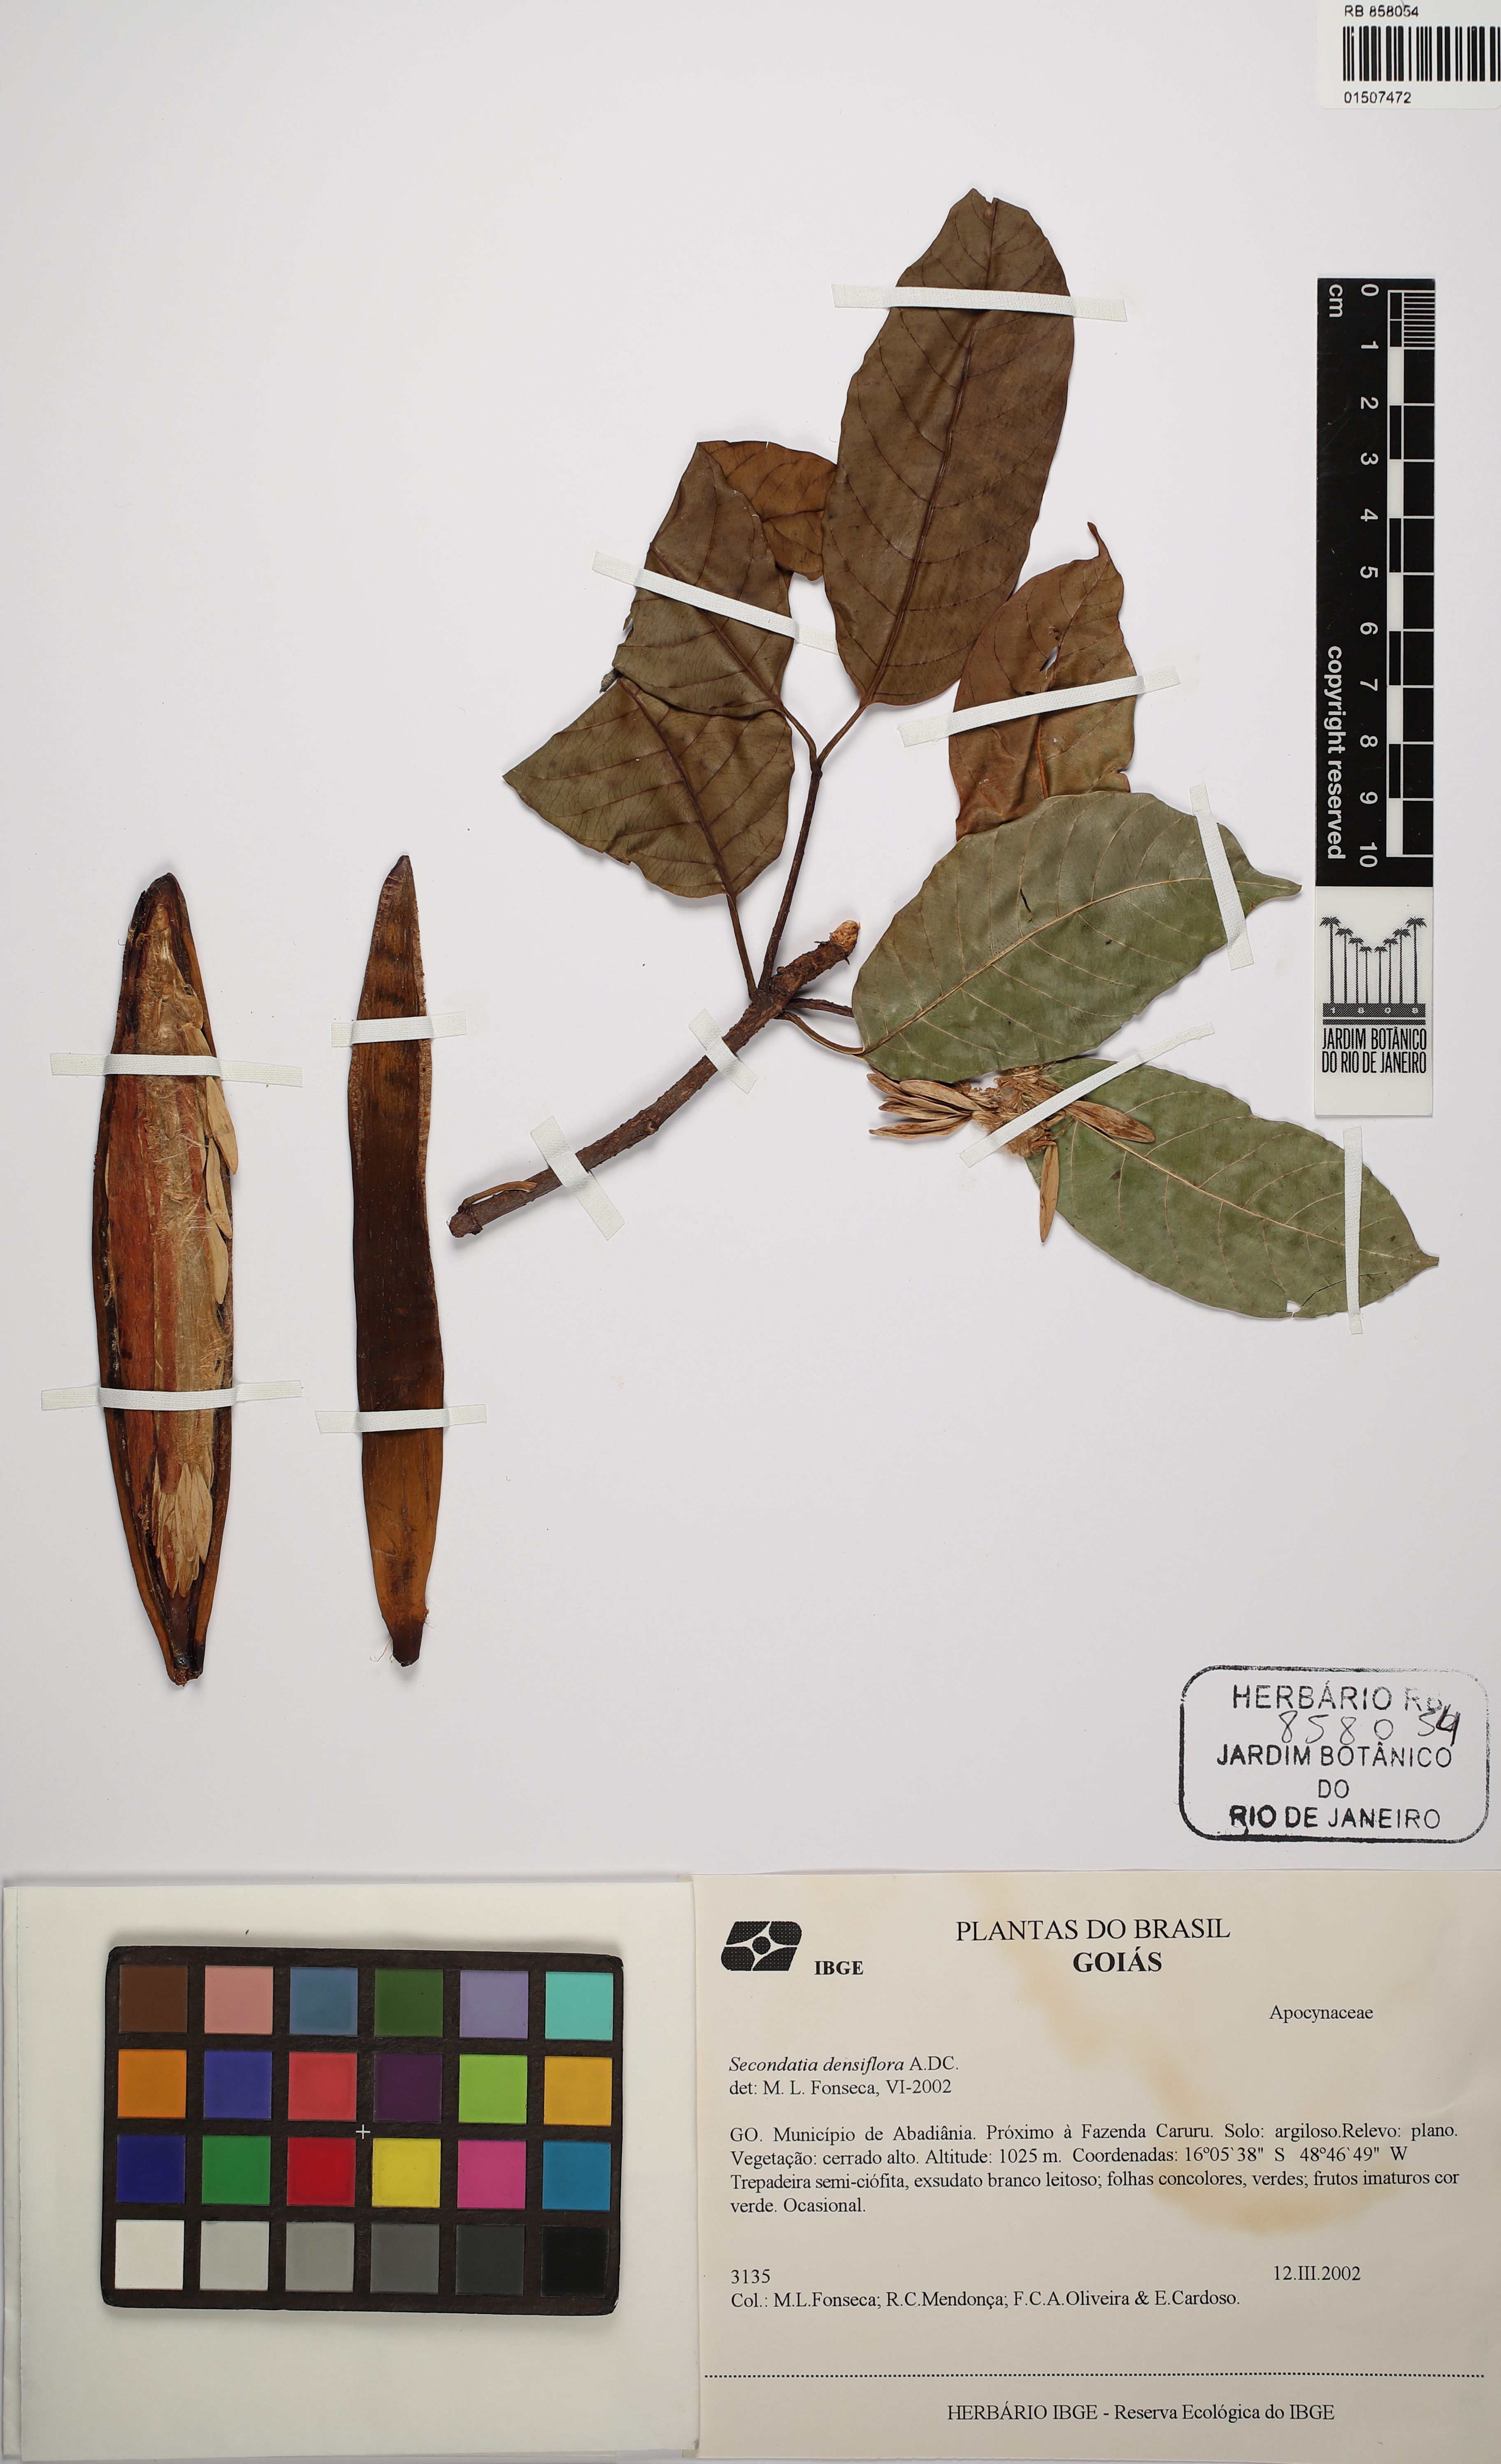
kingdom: Plantae
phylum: Tracheophyta
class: Magnoliopsida
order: Gentianales
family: Apocynaceae
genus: Secondatia
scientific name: Secondatia densiflora
